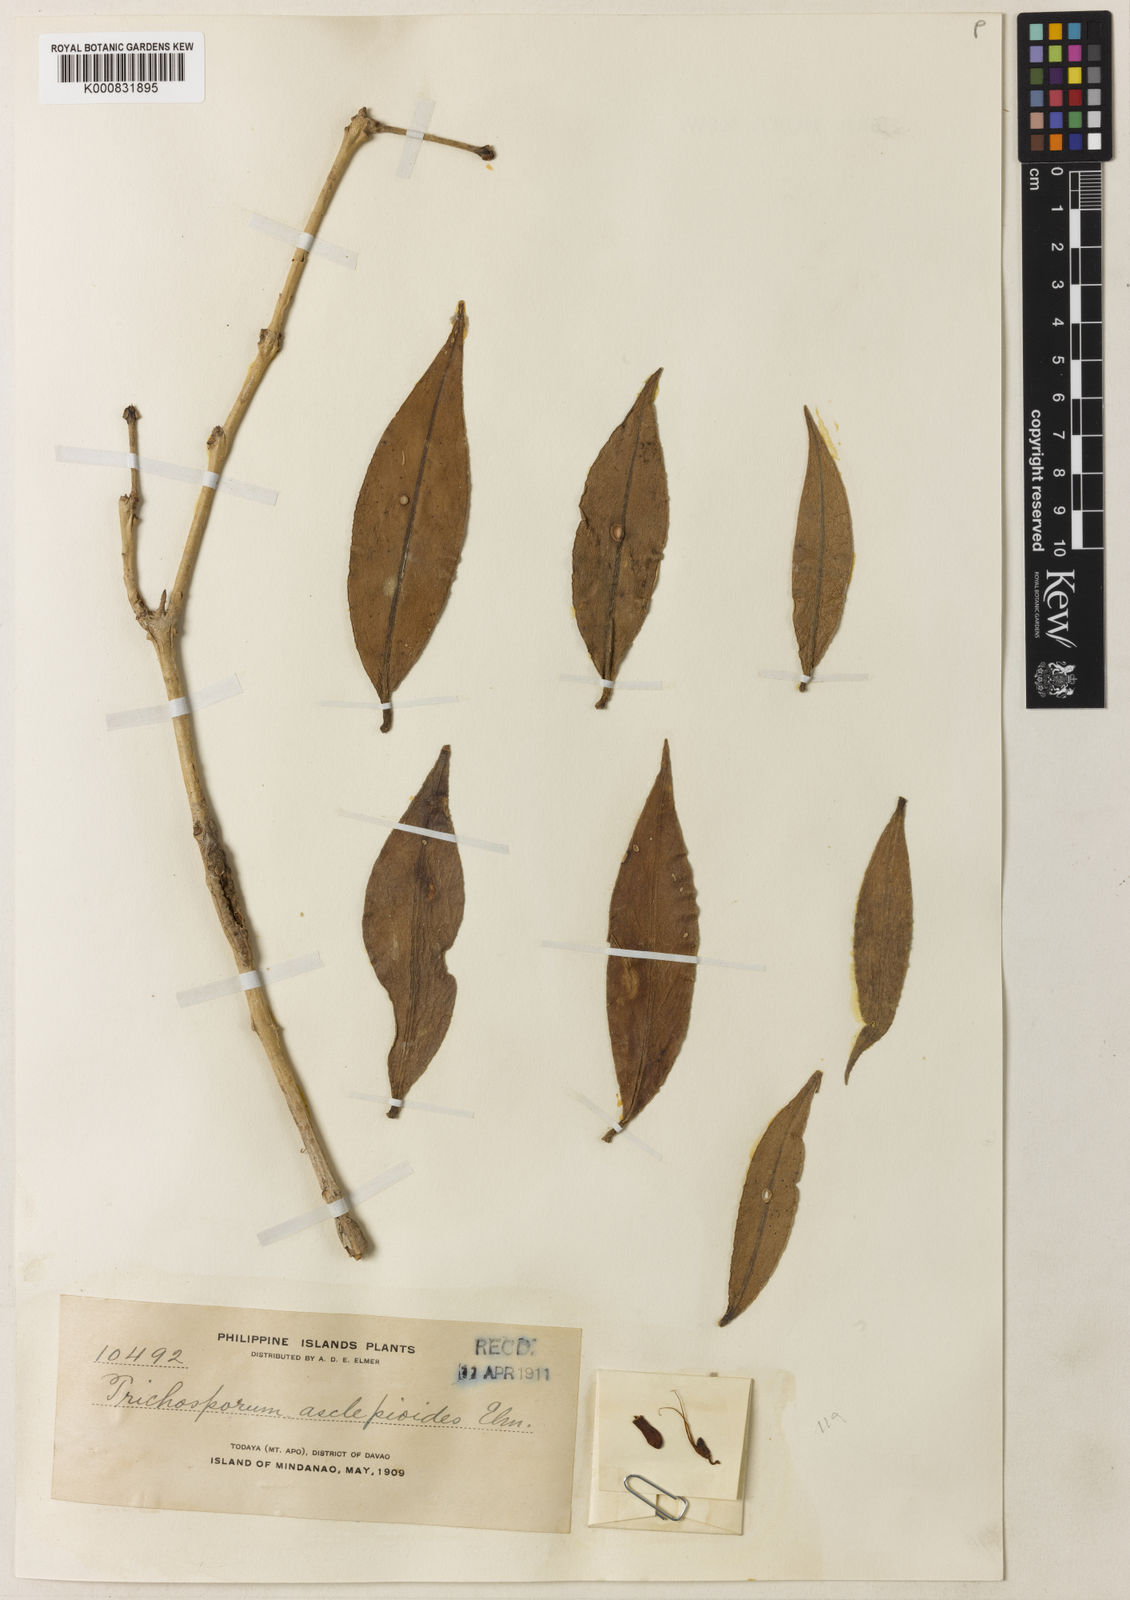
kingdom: Plantae
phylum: Tracheophyta
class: Magnoliopsida
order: Lamiales
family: Gesneriaceae
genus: Aeschynanthus
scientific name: Aeschynanthus asclepioides
